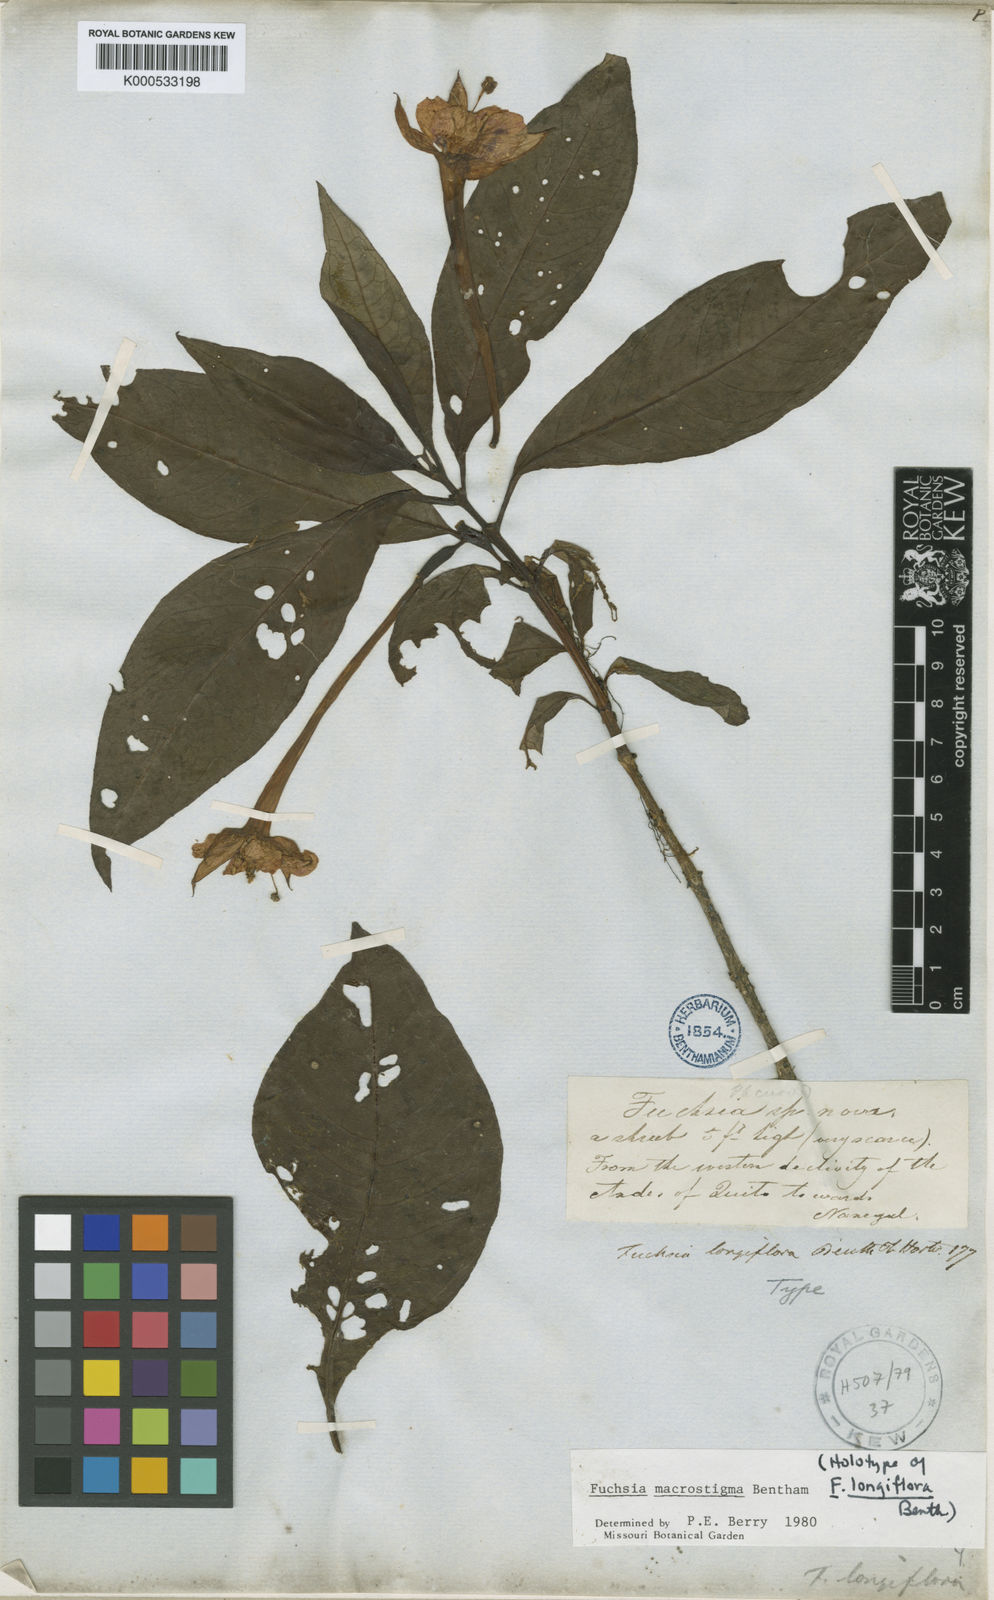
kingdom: Plantae
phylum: Tracheophyta
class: Magnoliopsida
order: Myrtales
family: Onagraceae
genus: Fuchsia
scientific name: Fuchsia macrostigma
